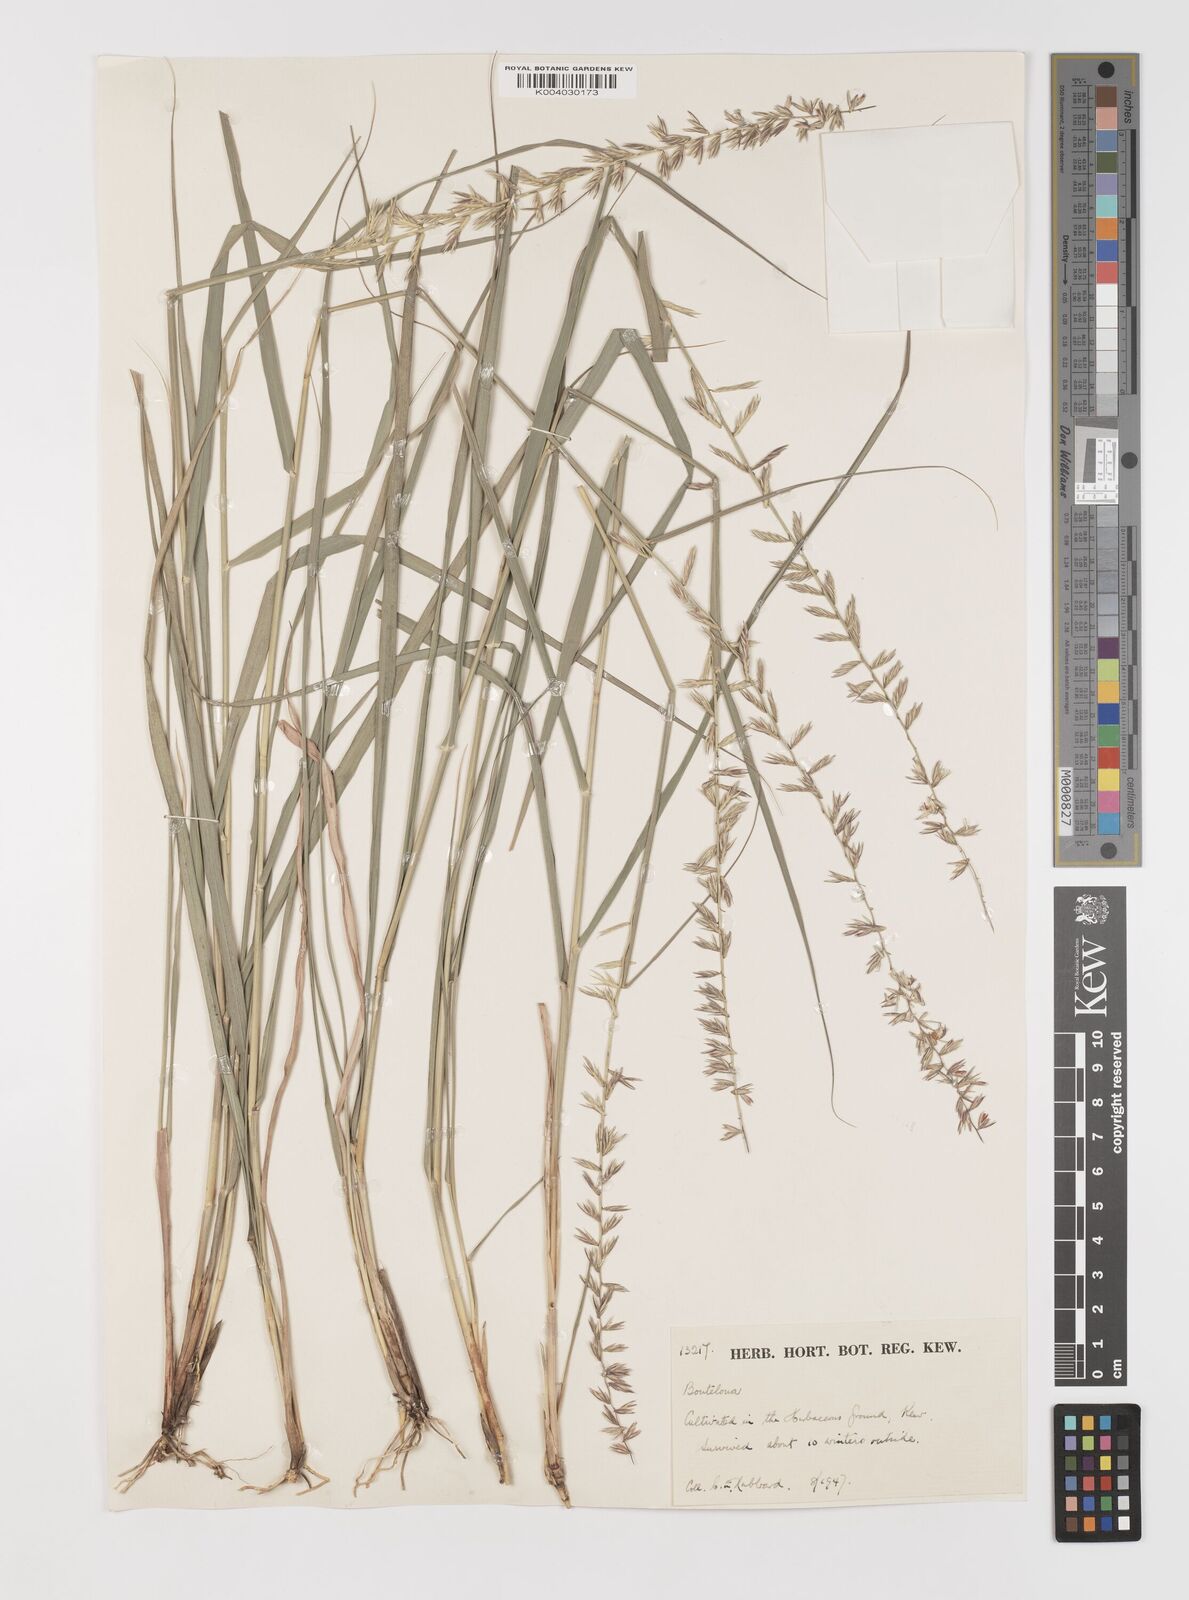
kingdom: Plantae
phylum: Tracheophyta
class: Liliopsida
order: Poales
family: Poaceae
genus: Bouteloua
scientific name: Bouteloua curtipendula
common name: Side-oats grama
